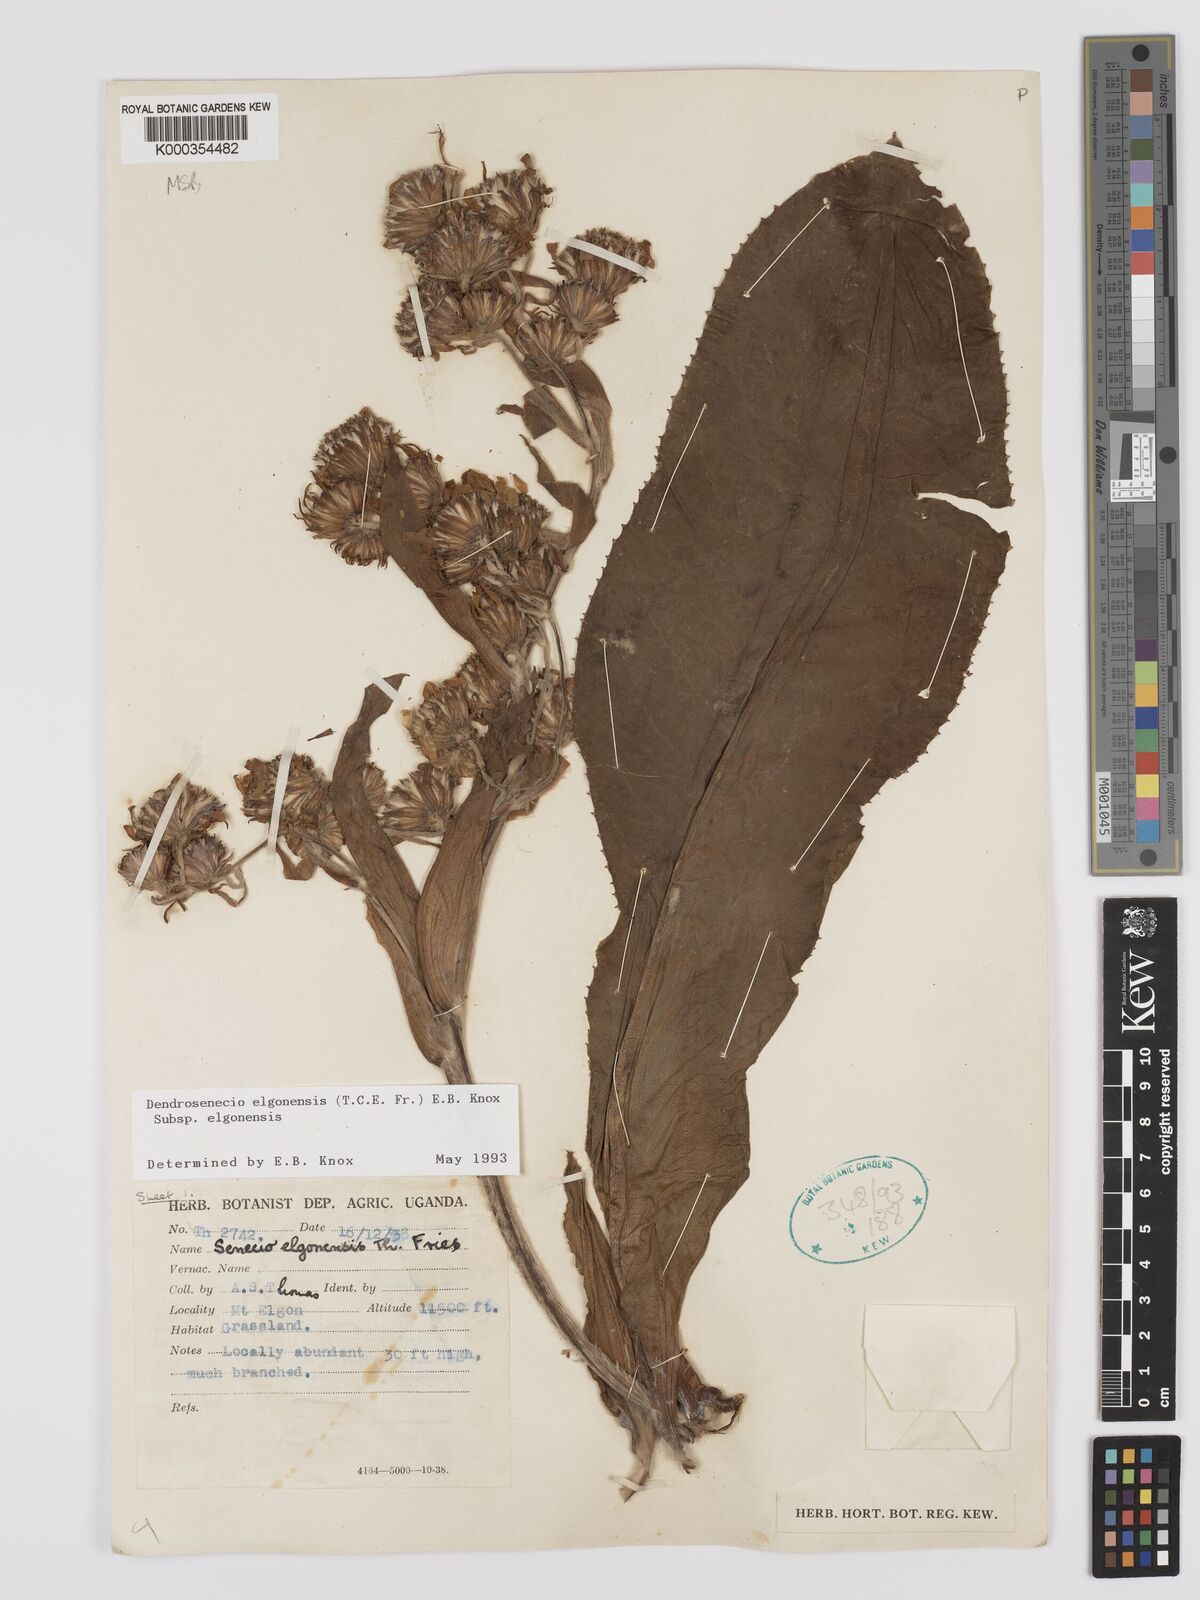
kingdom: Plantae
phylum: Tracheophyta
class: Magnoliopsida
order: Asterales
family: Asteraceae
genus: Dendrosenecio
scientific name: Dendrosenecio elgonensis
